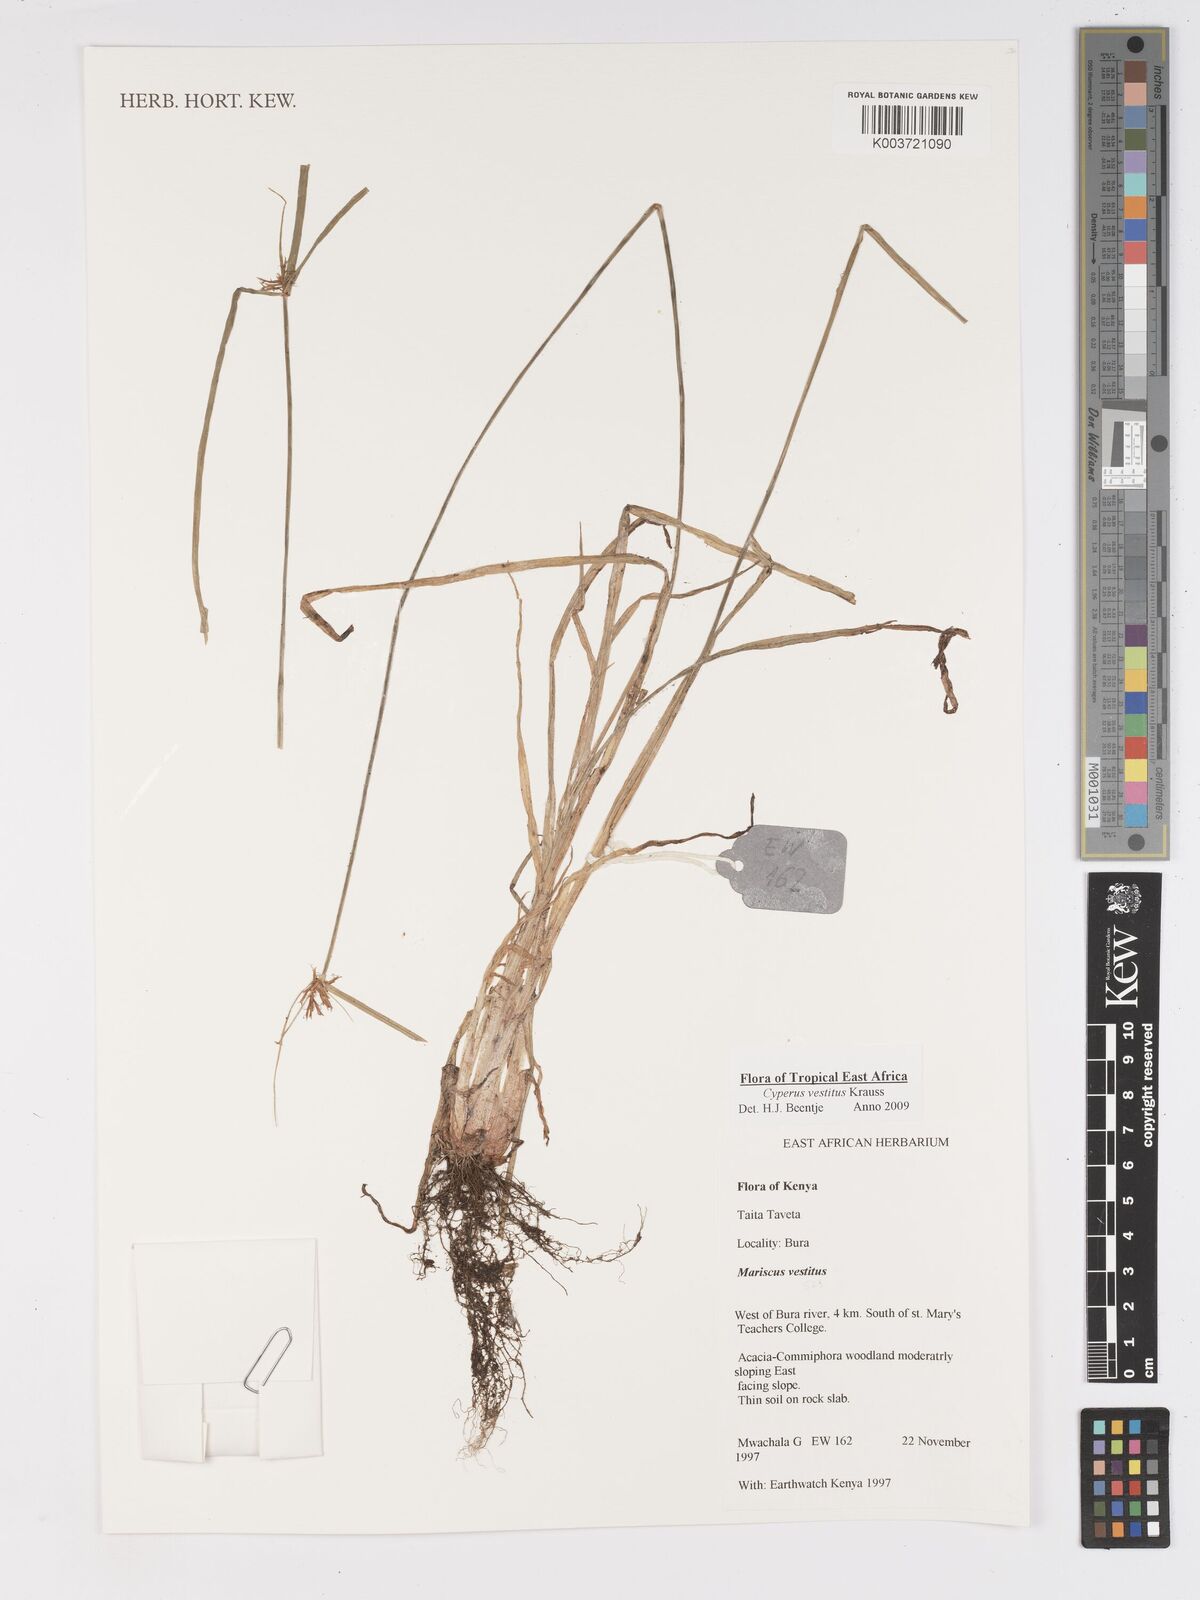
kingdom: Plantae
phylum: Tracheophyta
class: Liliopsida
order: Poales
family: Cyperaceae
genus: Cyperus
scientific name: Cyperus vestitus
